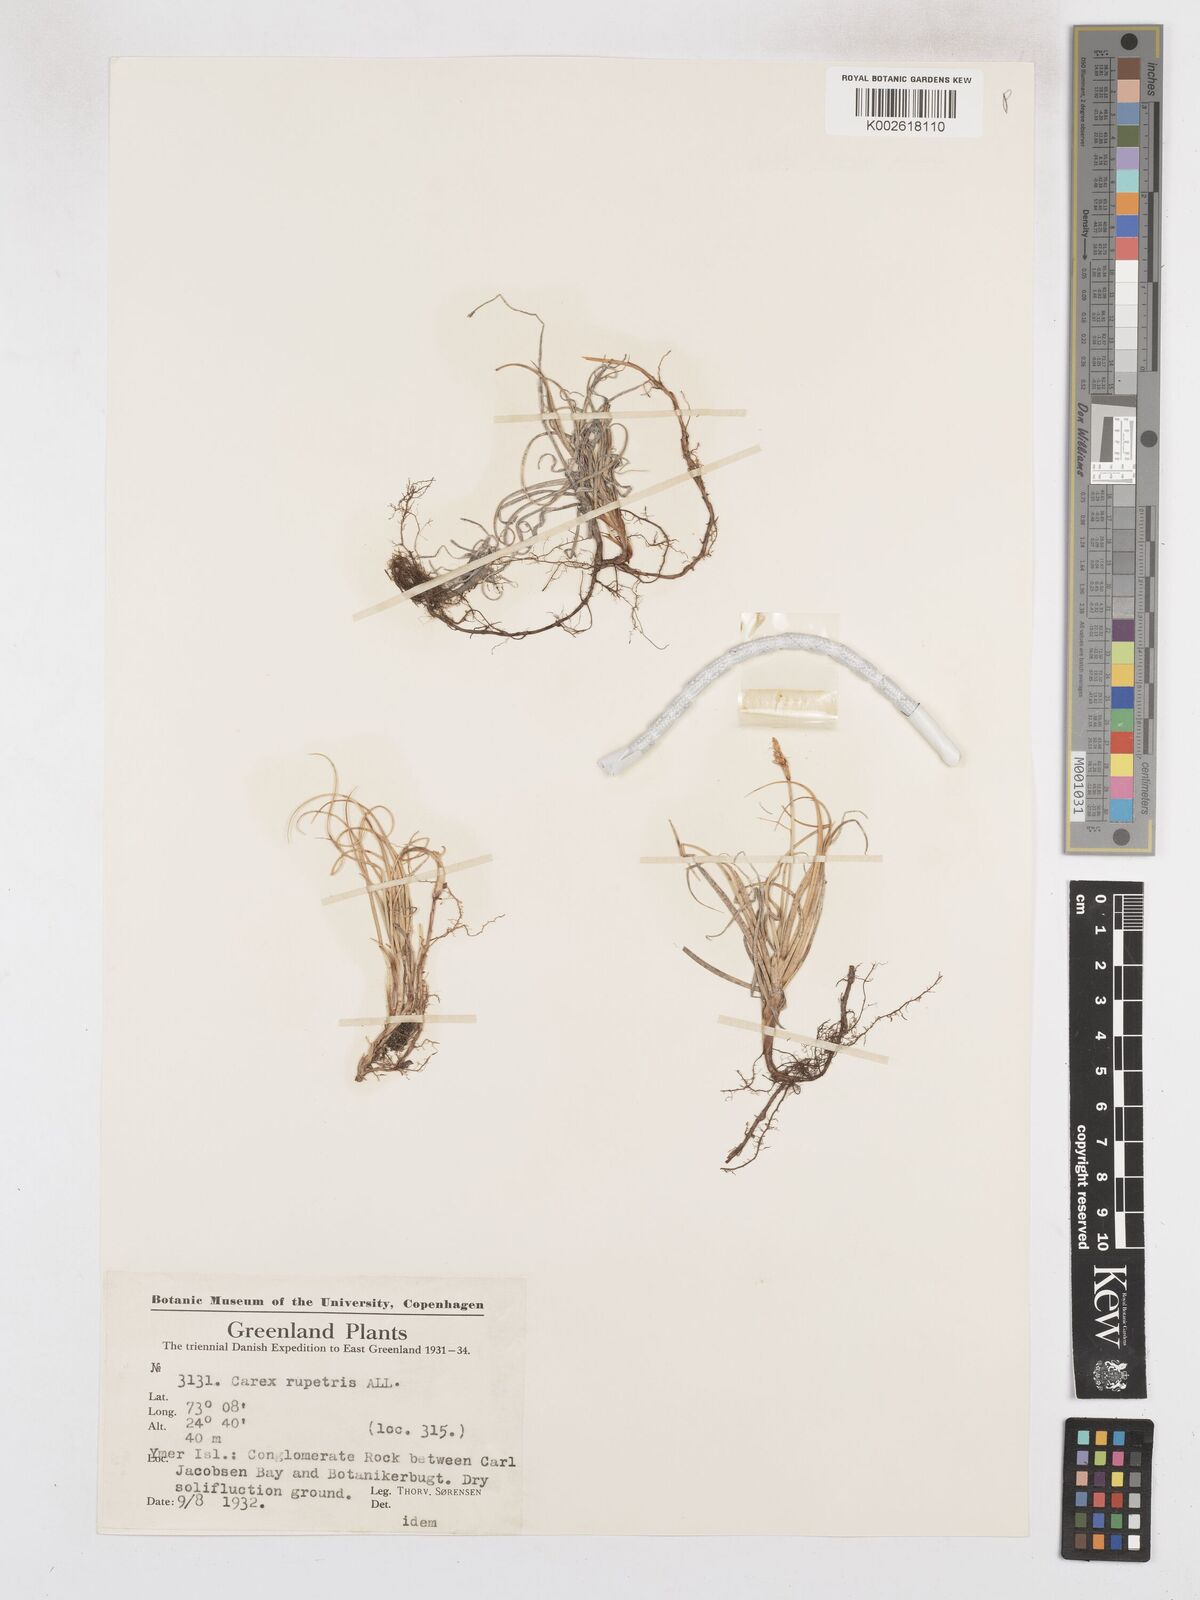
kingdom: Plantae
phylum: Tracheophyta
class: Liliopsida
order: Poales
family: Cyperaceae
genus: Carex
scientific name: Carex rupestris
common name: Rock sedge
